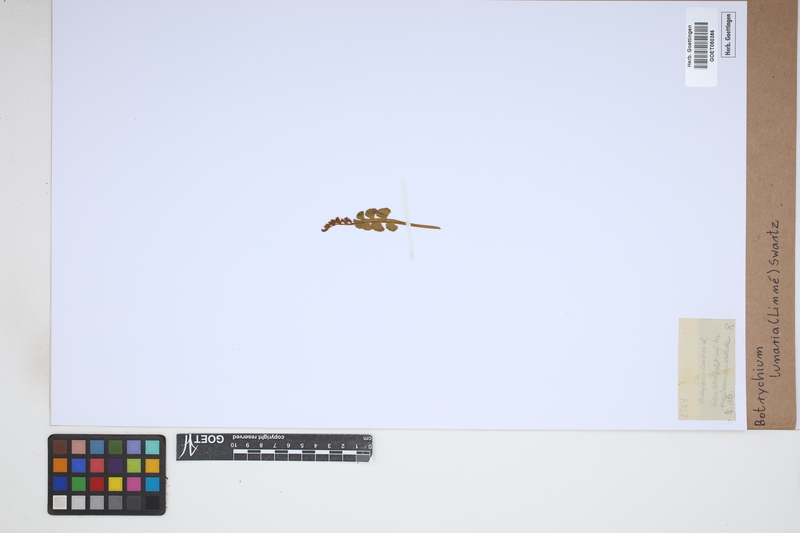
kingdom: Plantae
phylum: Tracheophyta
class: Polypodiopsida
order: Ophioglossales
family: Ophioglossaceae
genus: Botrychium
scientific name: Botrychium lunaria
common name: Moonwort
